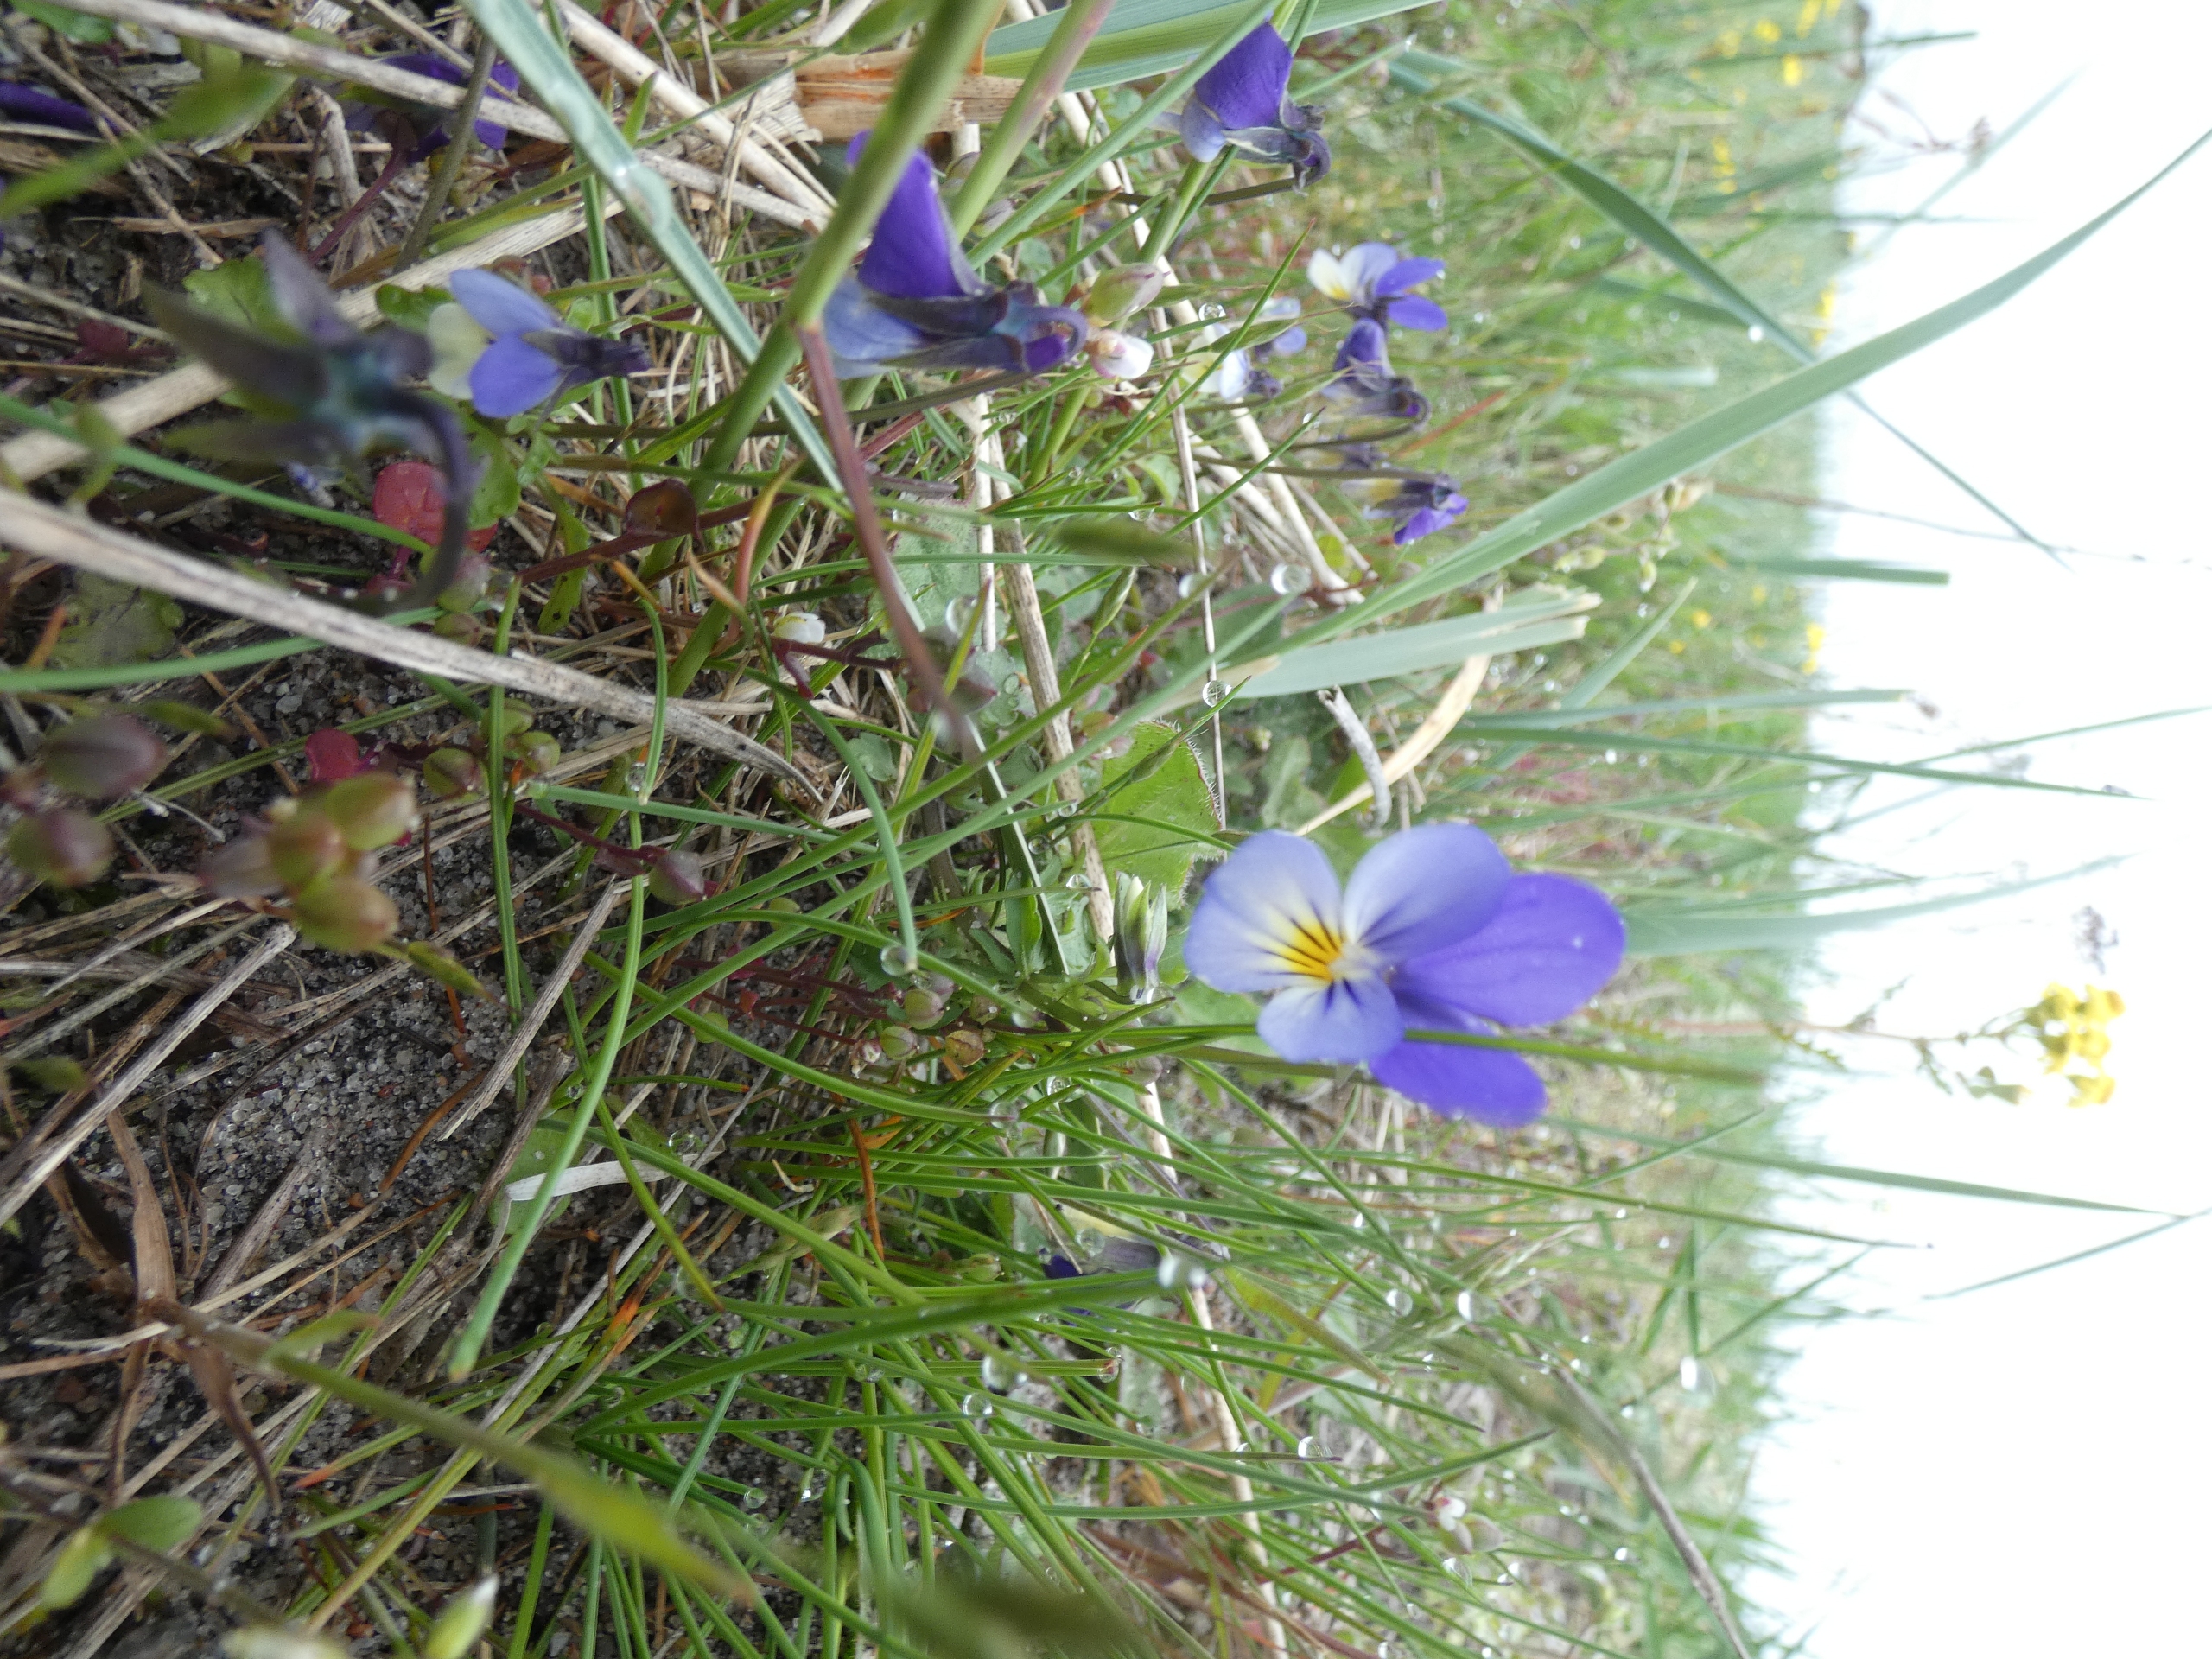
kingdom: Plantae
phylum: Tracheophyta
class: Magnoliopsida
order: Malpighiales
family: Violaceae
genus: Viola
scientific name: Viola tricolor
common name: Stedmoderblomst
